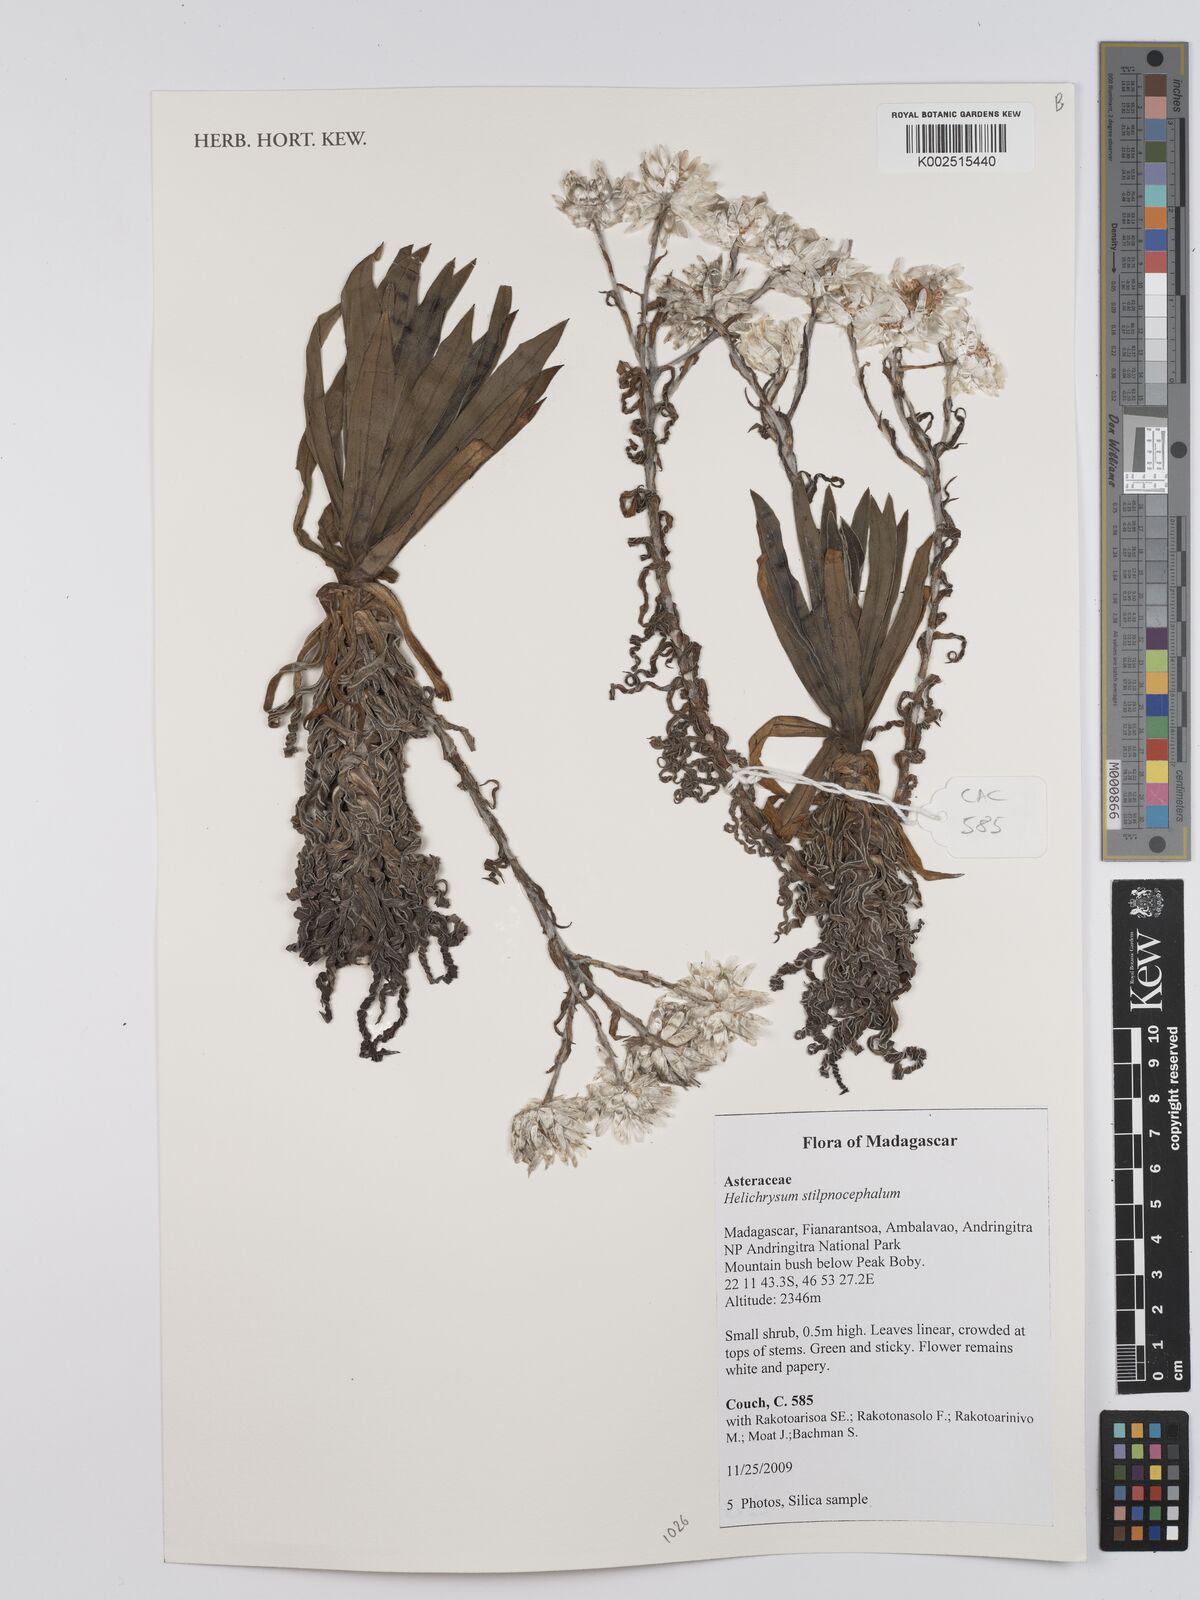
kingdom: Plantae
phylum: Tracheophyta
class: Magnoliopsida
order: Asterales
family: Asteraceae
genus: Helichrysum
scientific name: Helichrysum stilpnocephalum
